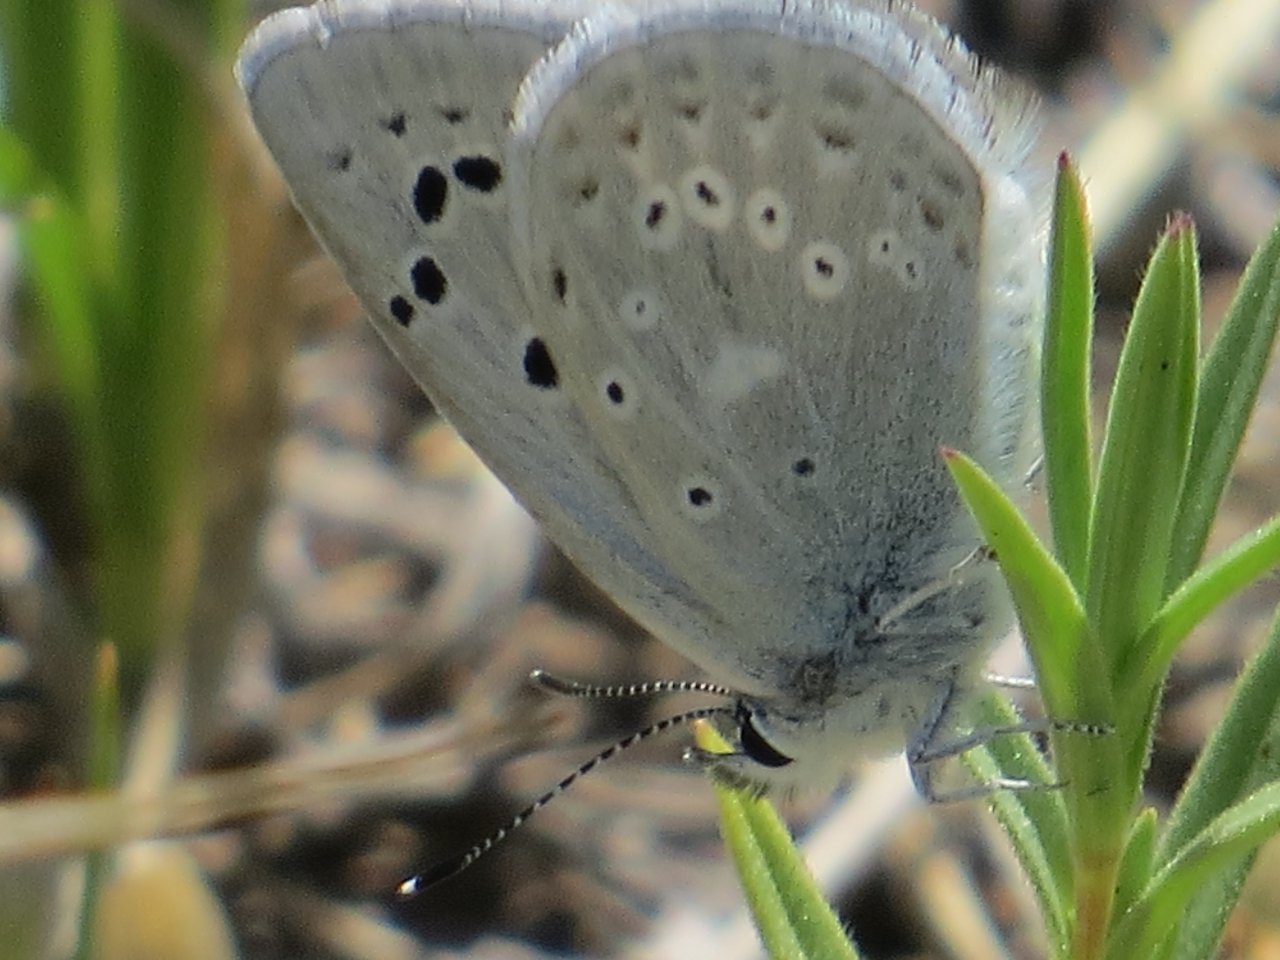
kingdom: Animalia
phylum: Arthropoda
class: Insecta
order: Lepidoptera
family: Lycaenidae
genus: Icaricia
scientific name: Icaricia icarioides
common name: Boisduval's Blue
